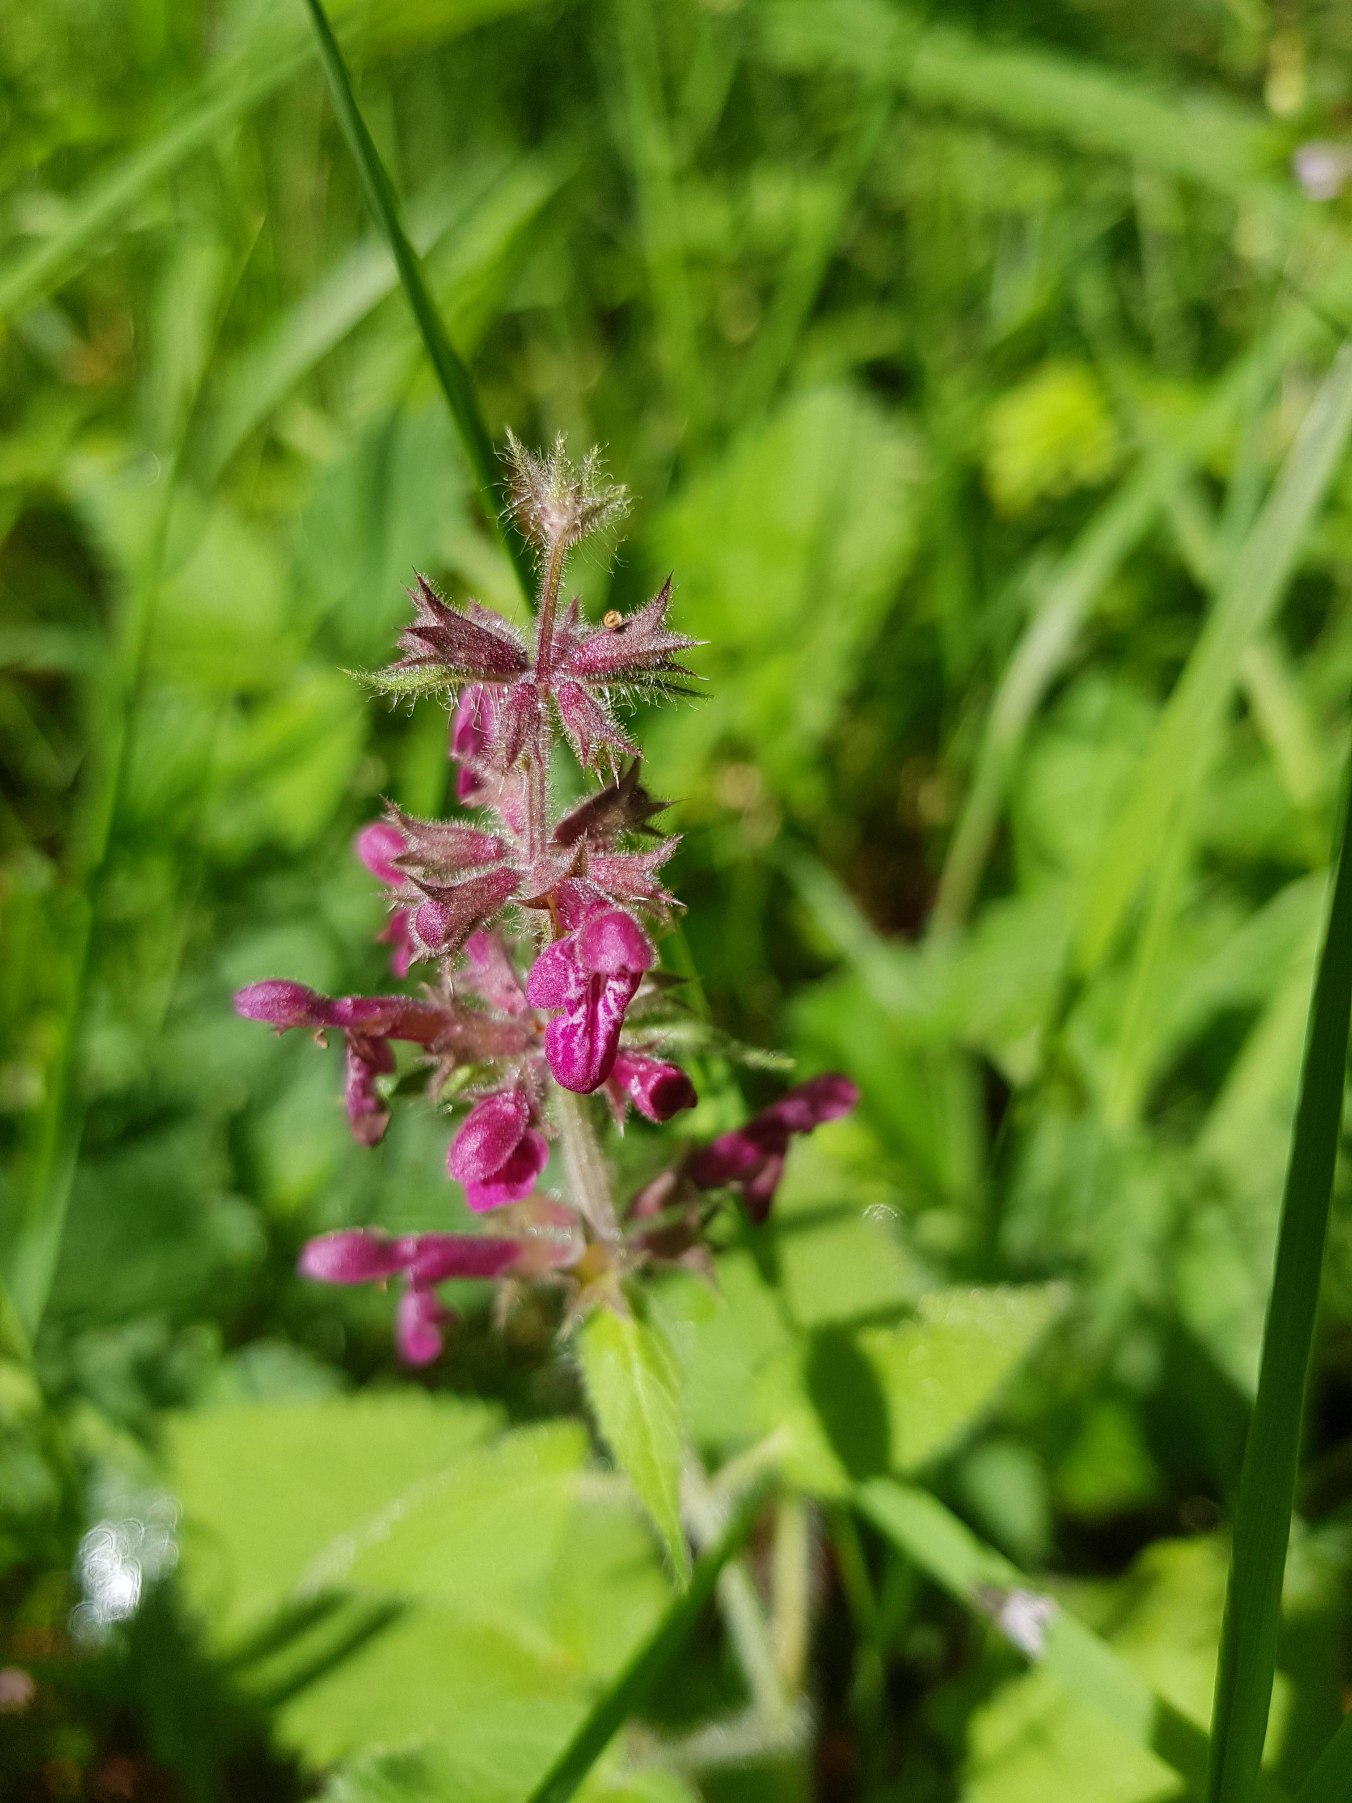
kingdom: Plantae
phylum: Tracheophyta
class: Magnoliopsida
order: Lamiales
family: Lamiaceae
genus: Stachys
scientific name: Stachys sylvatica
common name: Skov-galtetand
